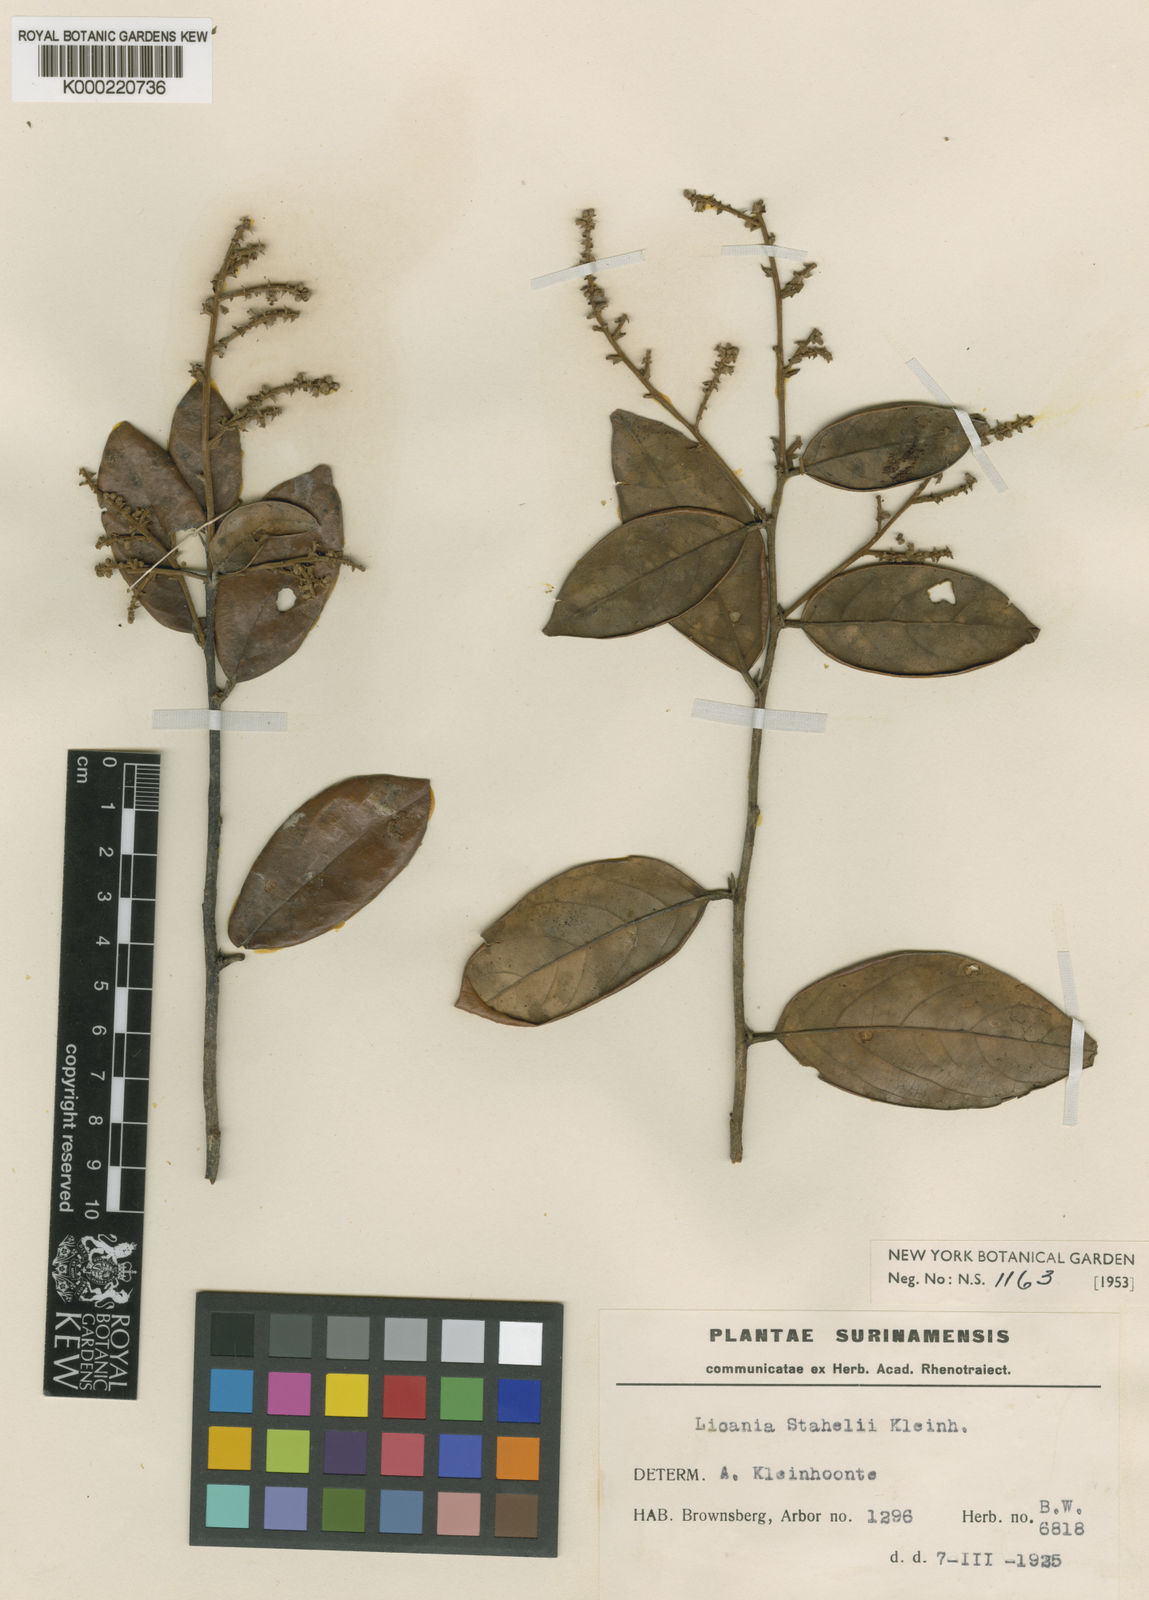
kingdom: Plantae
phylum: Tracheophyta
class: Magnoliopsida
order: Malpighiales
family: Chrysobalanaceae
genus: Licania
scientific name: Licania ovalifolia
